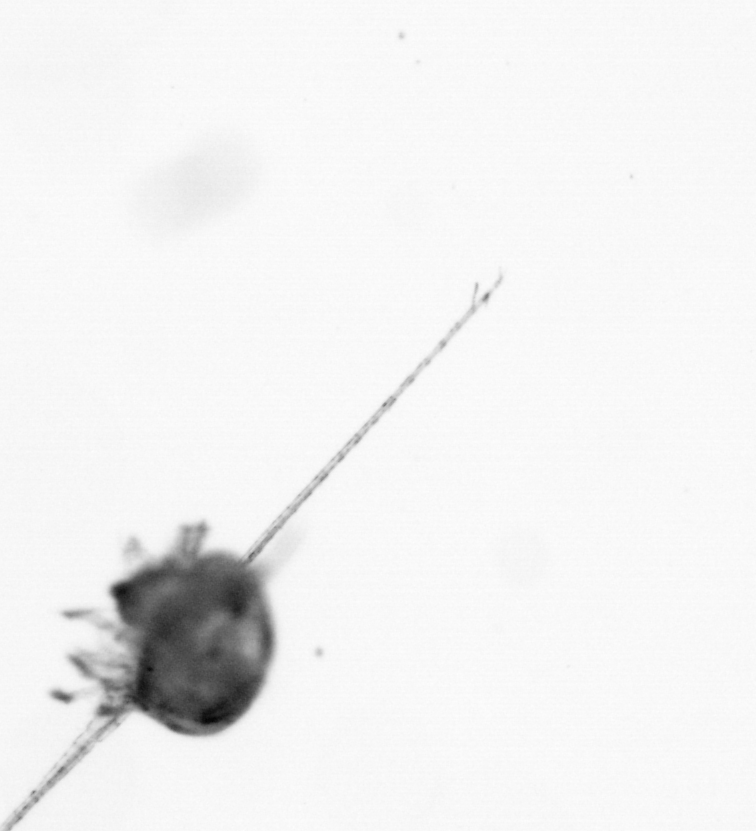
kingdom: Animalia
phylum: Arthropoda
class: Copepoda
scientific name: Copepoda
